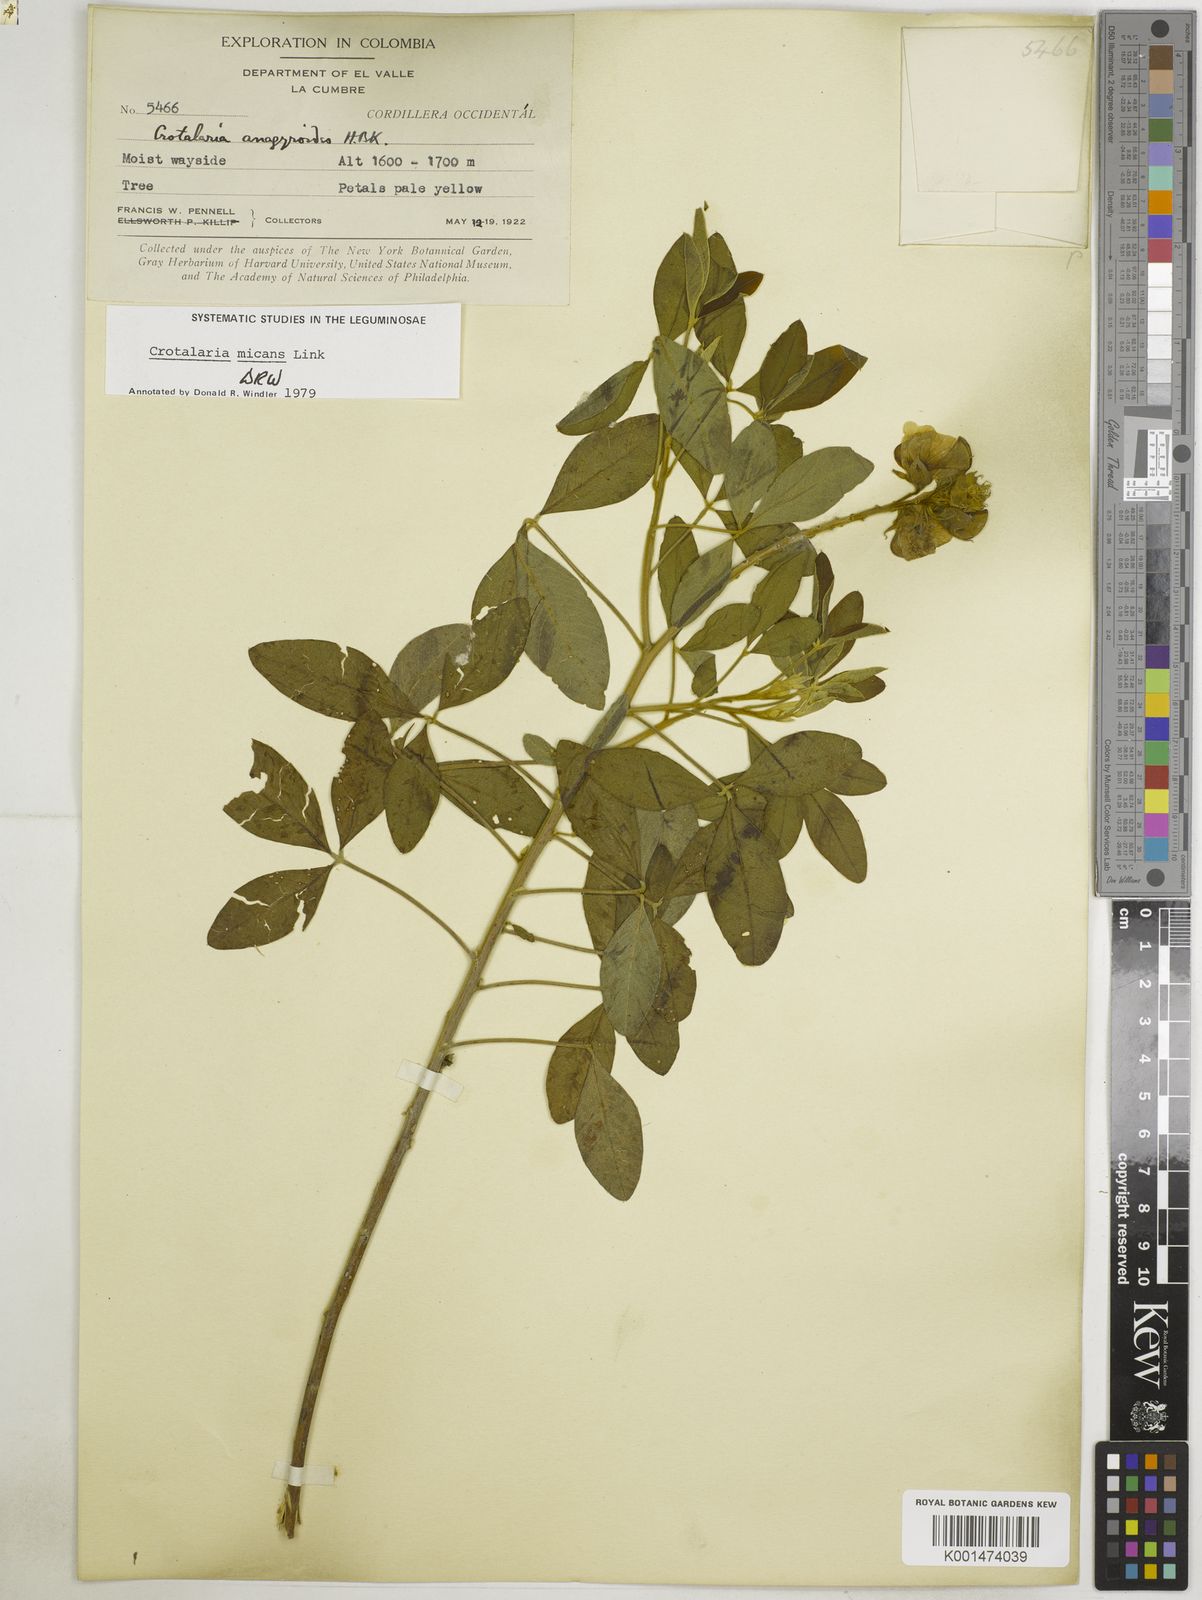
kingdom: Plantae
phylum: Tracheophyta
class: Magnoliopsida
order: Fabales
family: Fabaceae
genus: Crotalaria
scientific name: Crotalaria micans
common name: Caracas rattlebox
